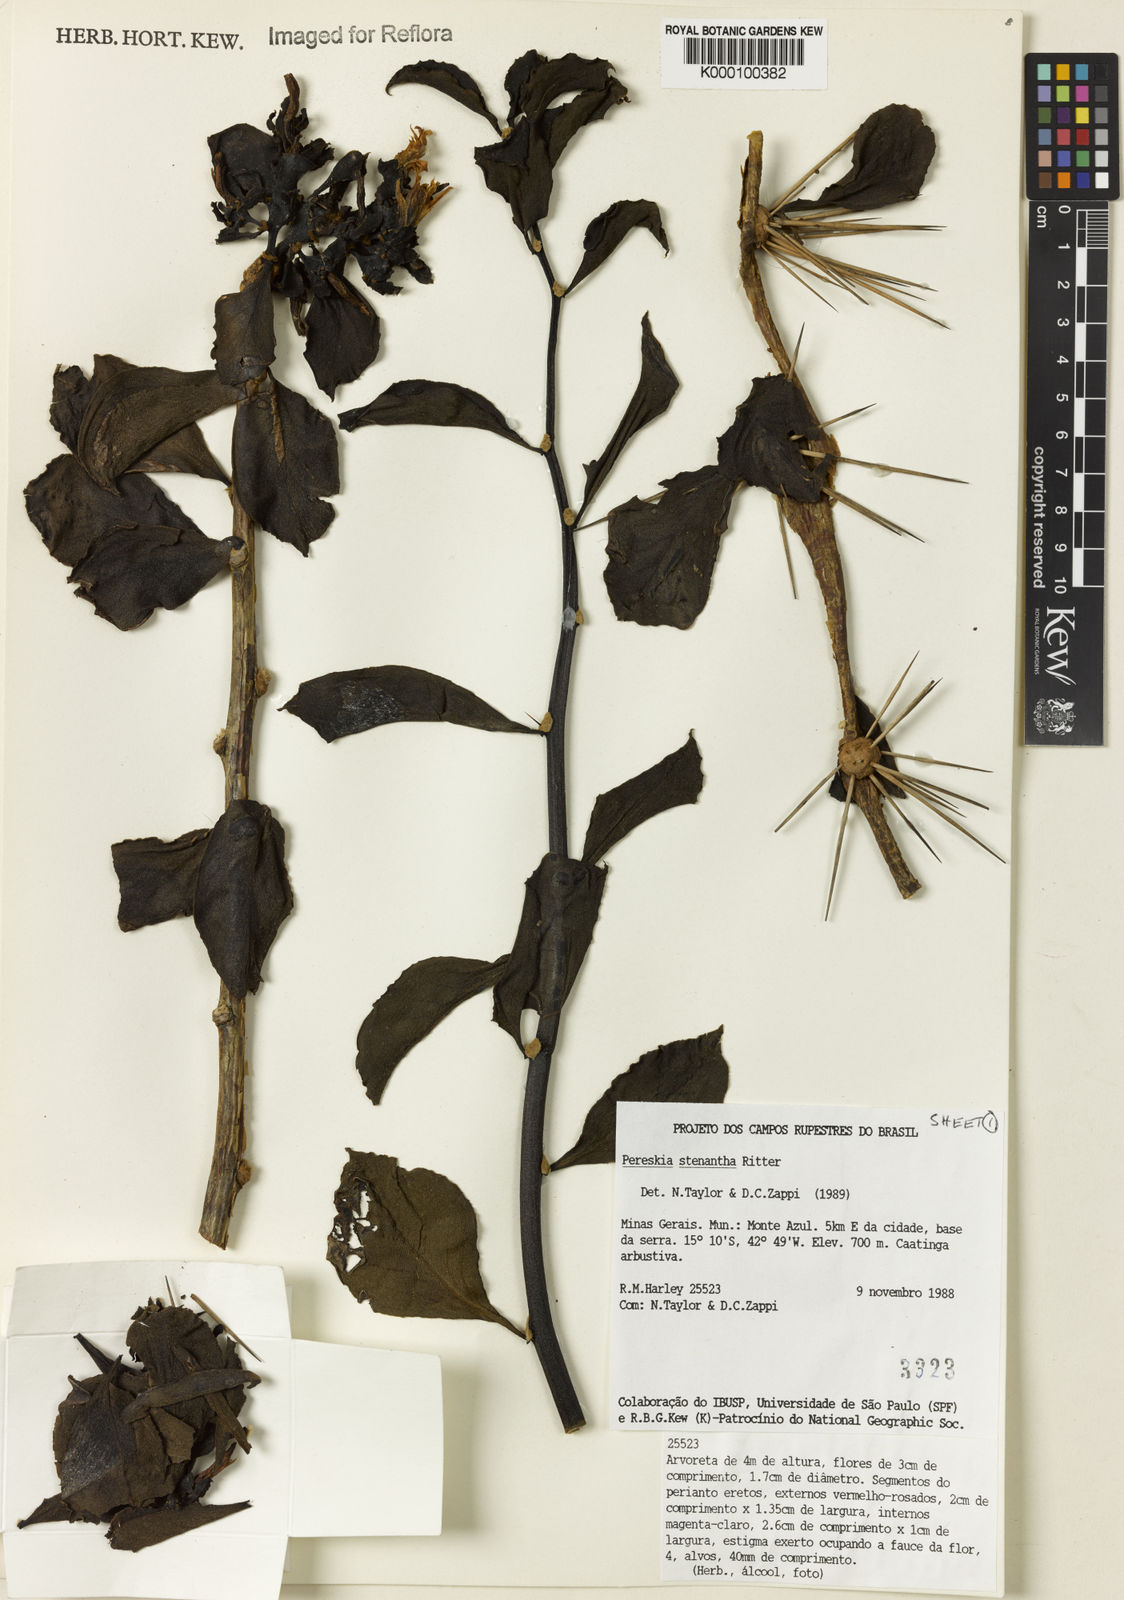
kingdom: Plantae
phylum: Tracheophyta
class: Magnoliopsida
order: Caryophyllales
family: Cactaceae
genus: Pereskia
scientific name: Pereskia stenantha
